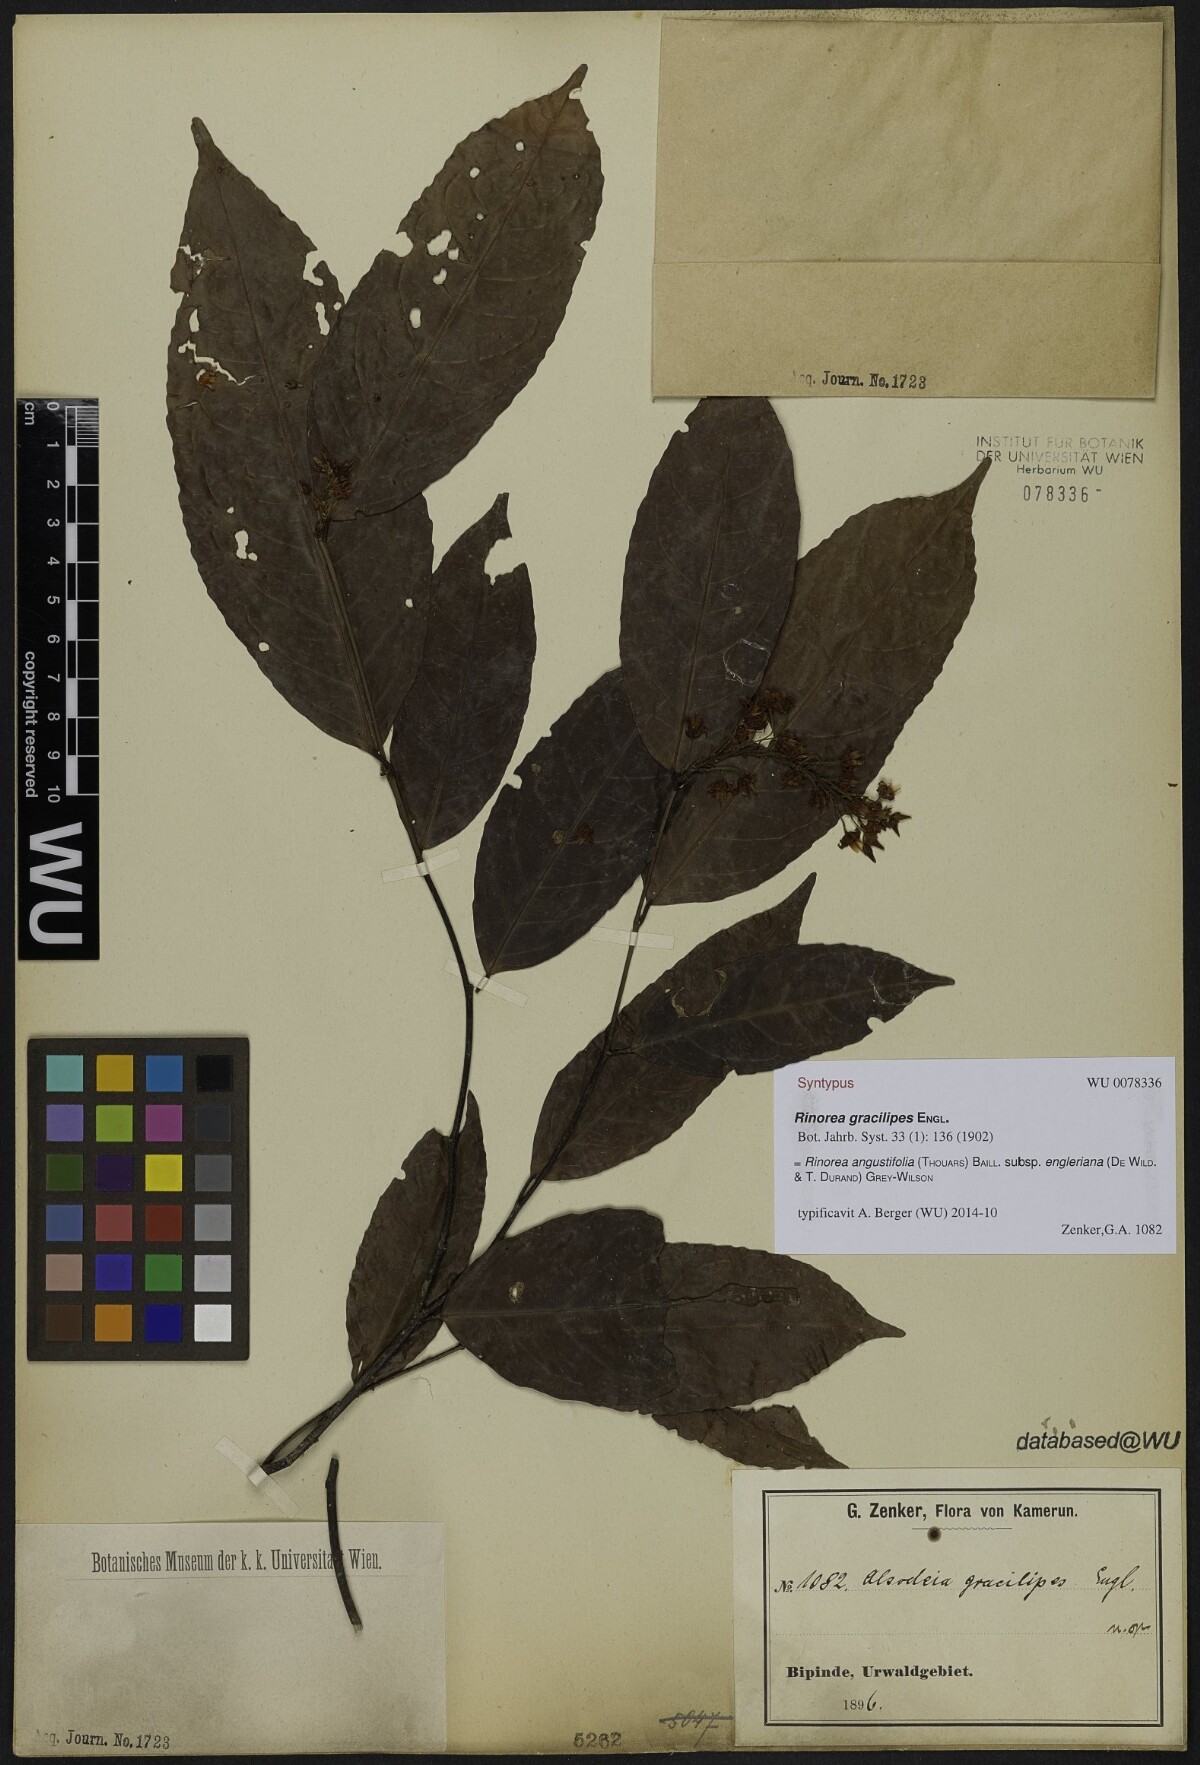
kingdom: Plantae
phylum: Tracheophyta
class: Magnoliopsida
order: Malpighiales
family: Violaceae
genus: Rinorea
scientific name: Rinorea angustifolia
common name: White violet-bush
